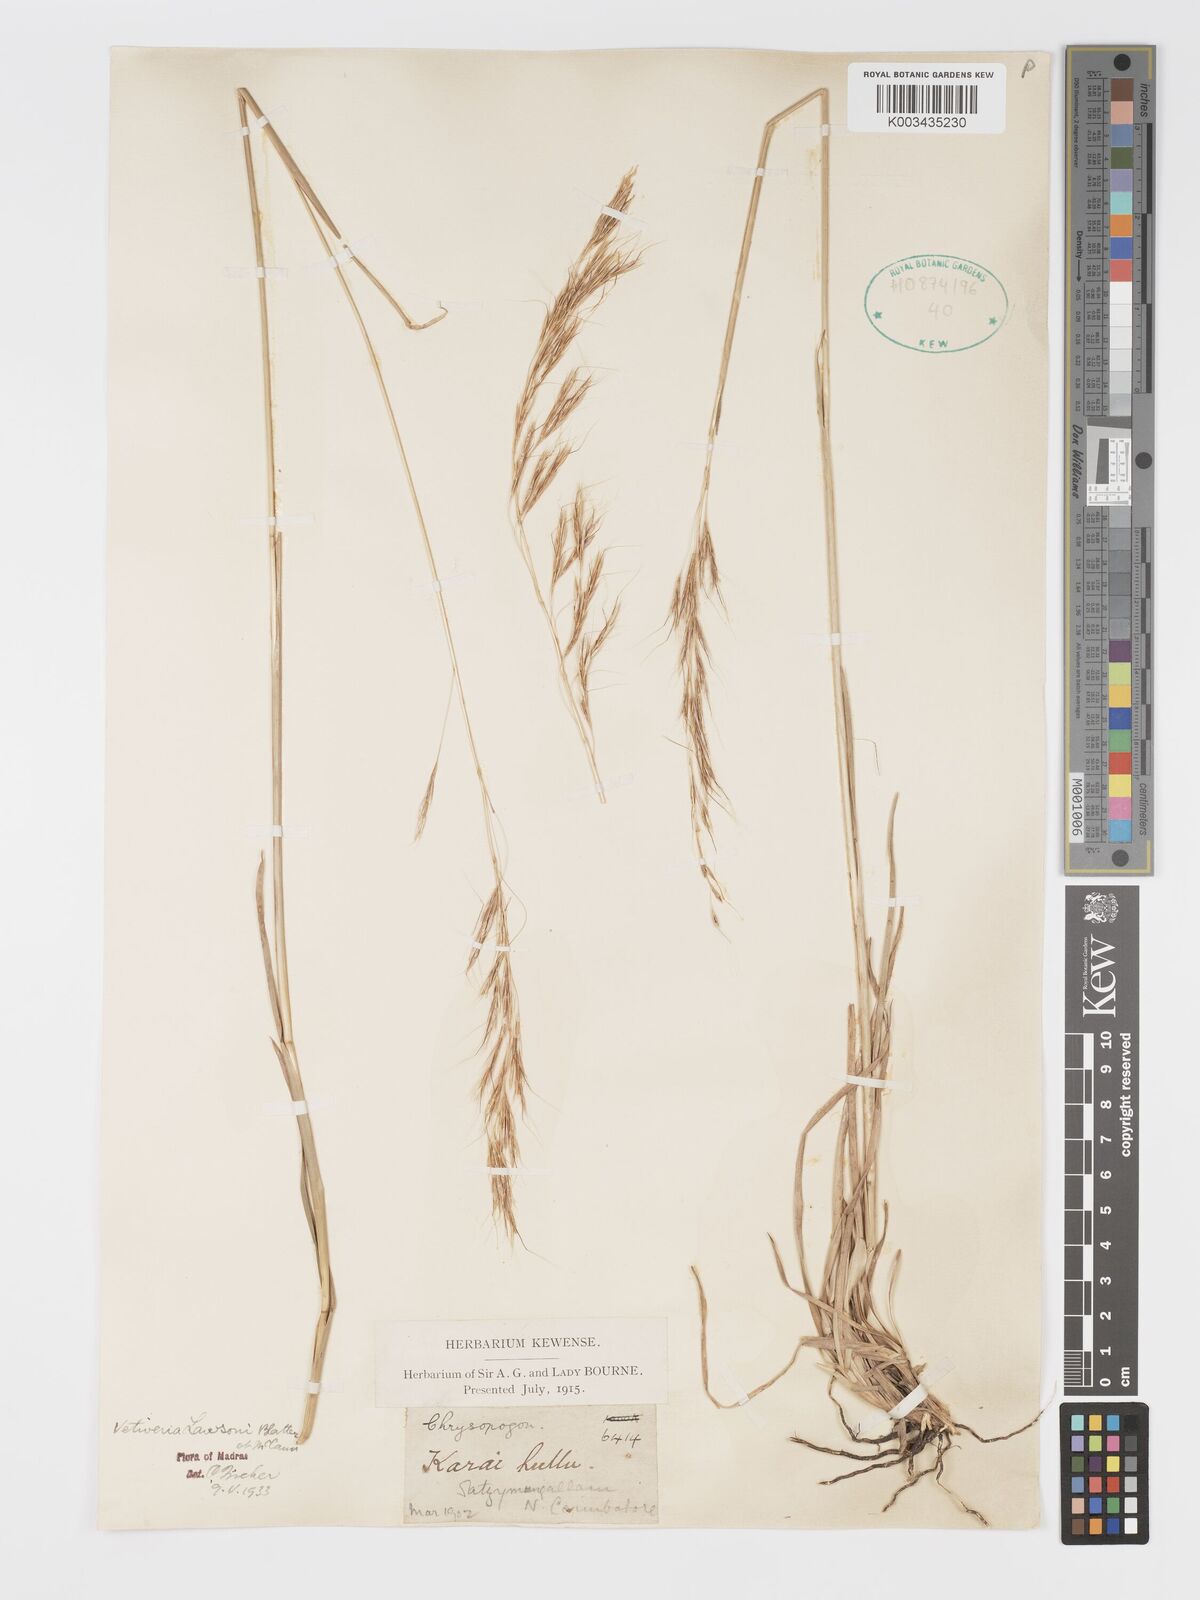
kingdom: Plantae
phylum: Tracheophyta
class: Liliopsida
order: Poales
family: Poaceae
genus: Chrysopogon
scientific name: Chrysopogon lawsonii
